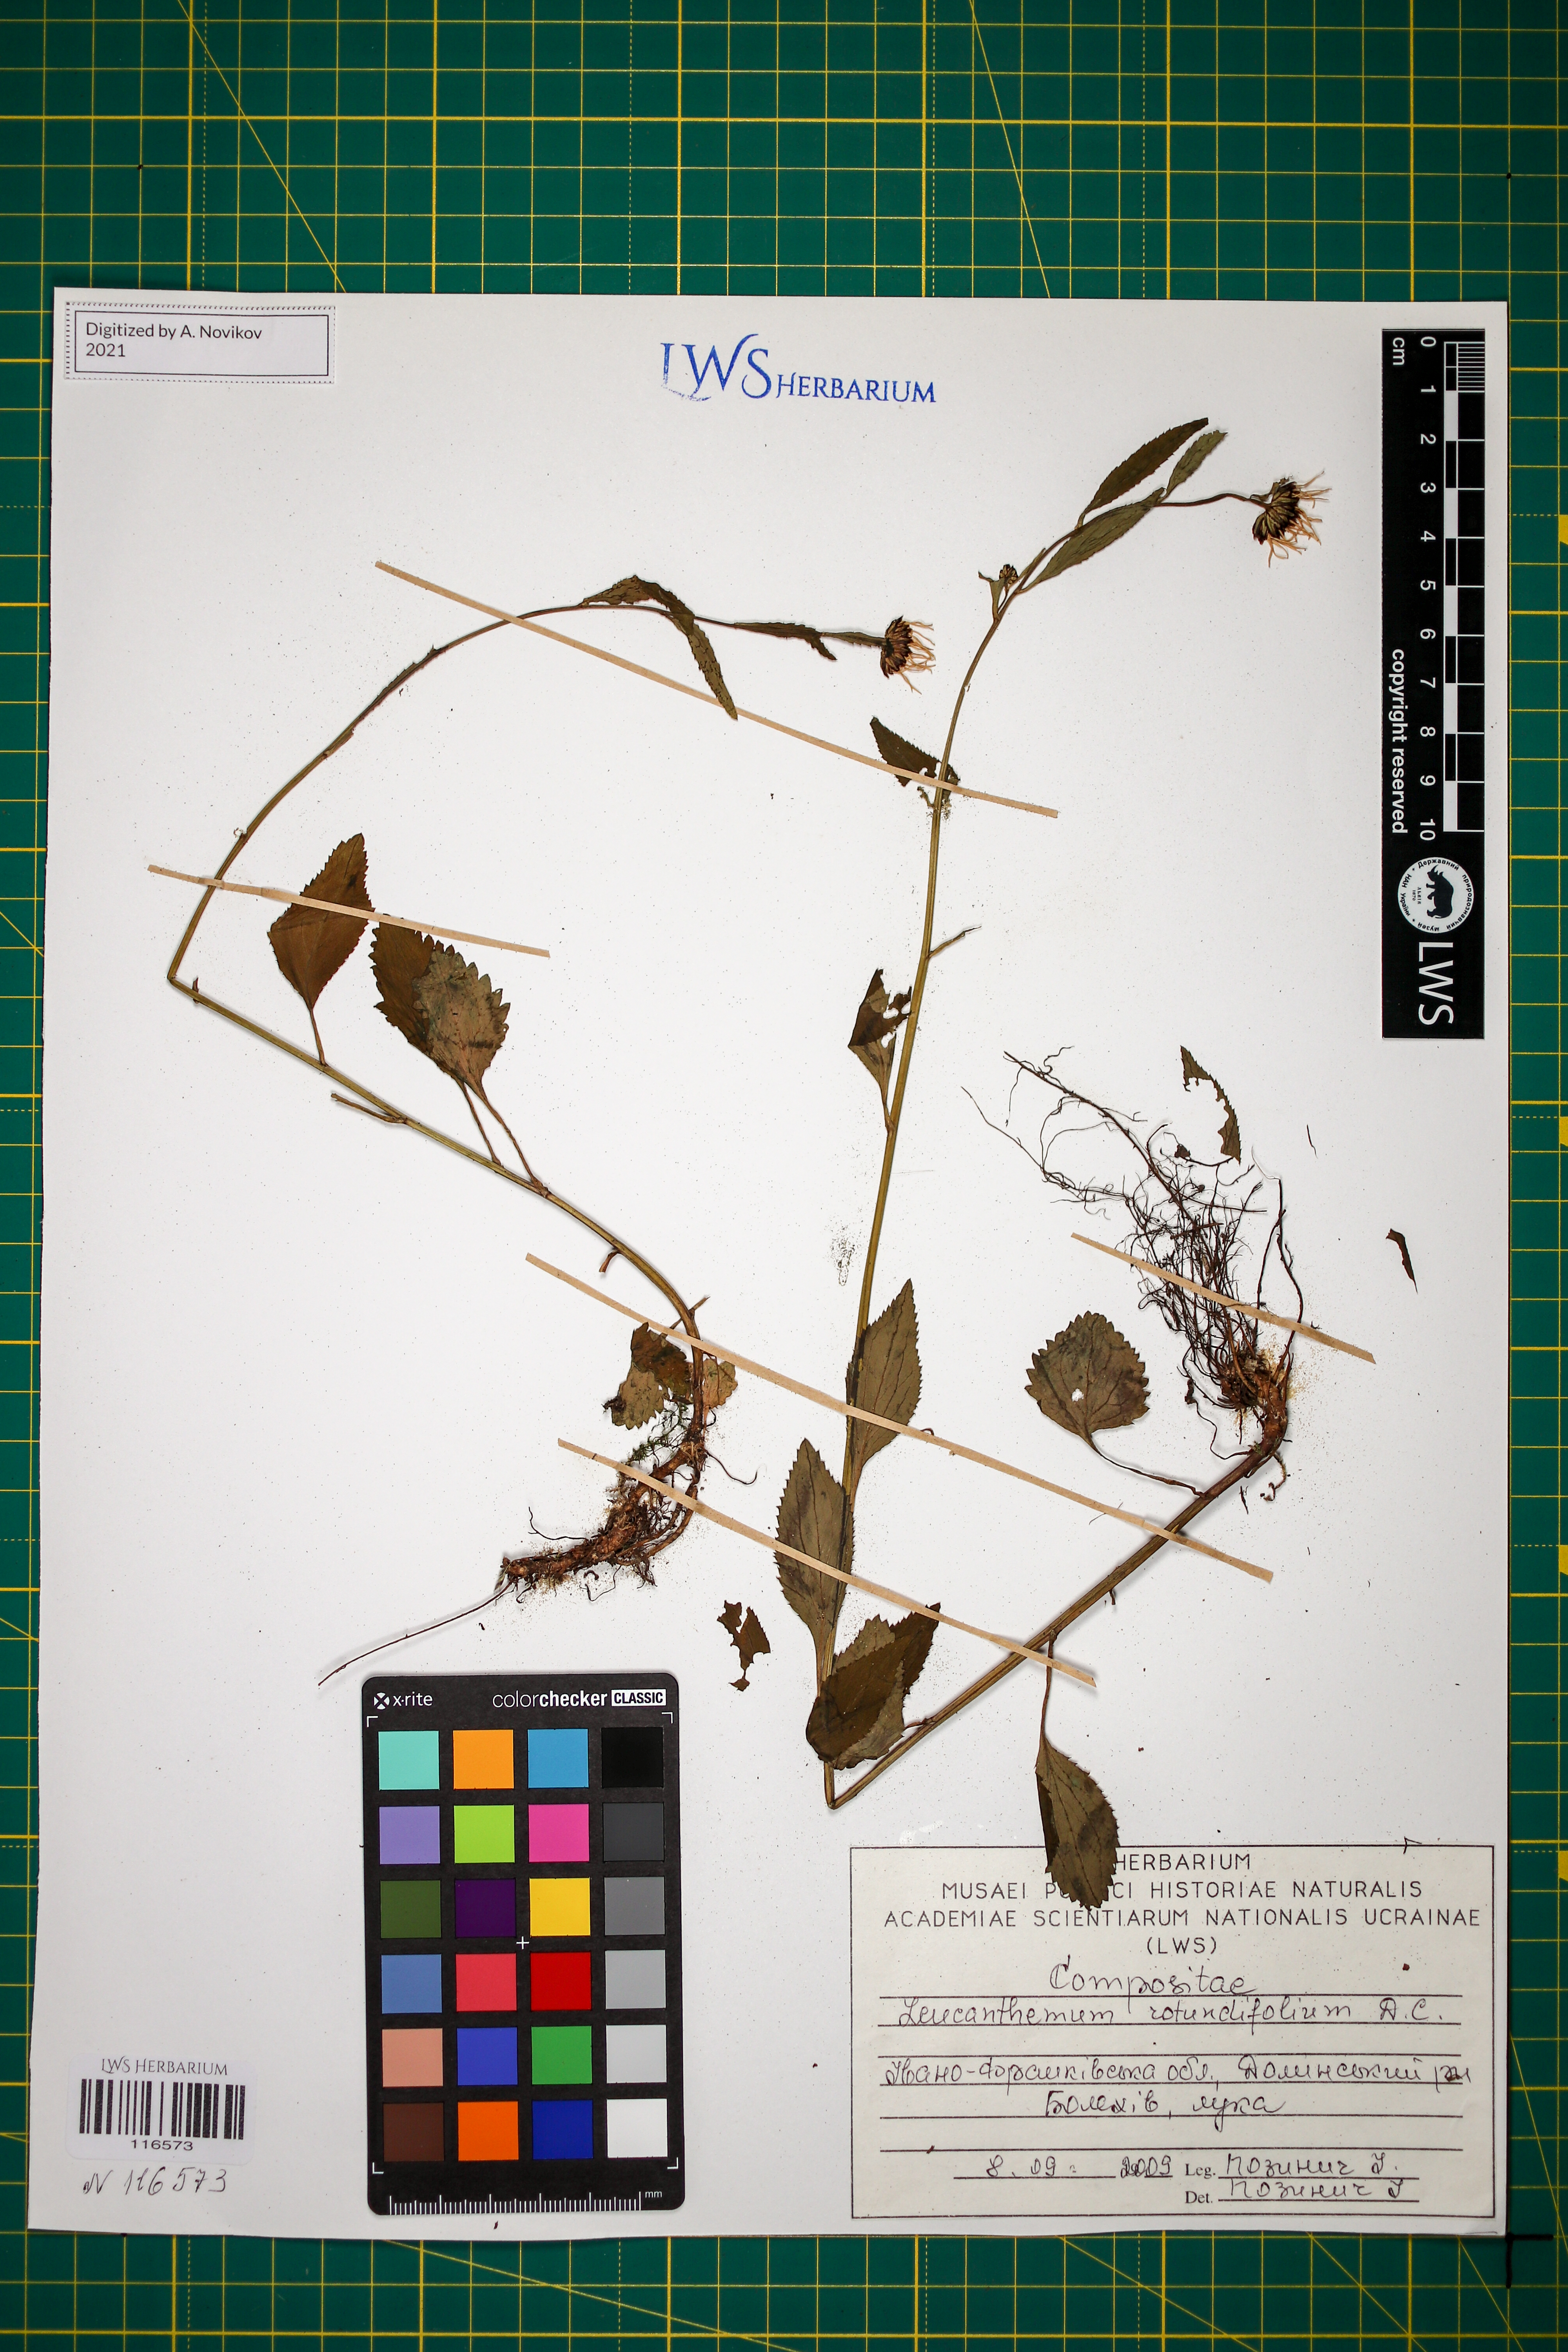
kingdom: Plantae
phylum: Tracheophyta
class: Magnoliopsida
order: Asterales
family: Asteraceae
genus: Leucanthemum
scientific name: Leucanthemum rotundifolium
